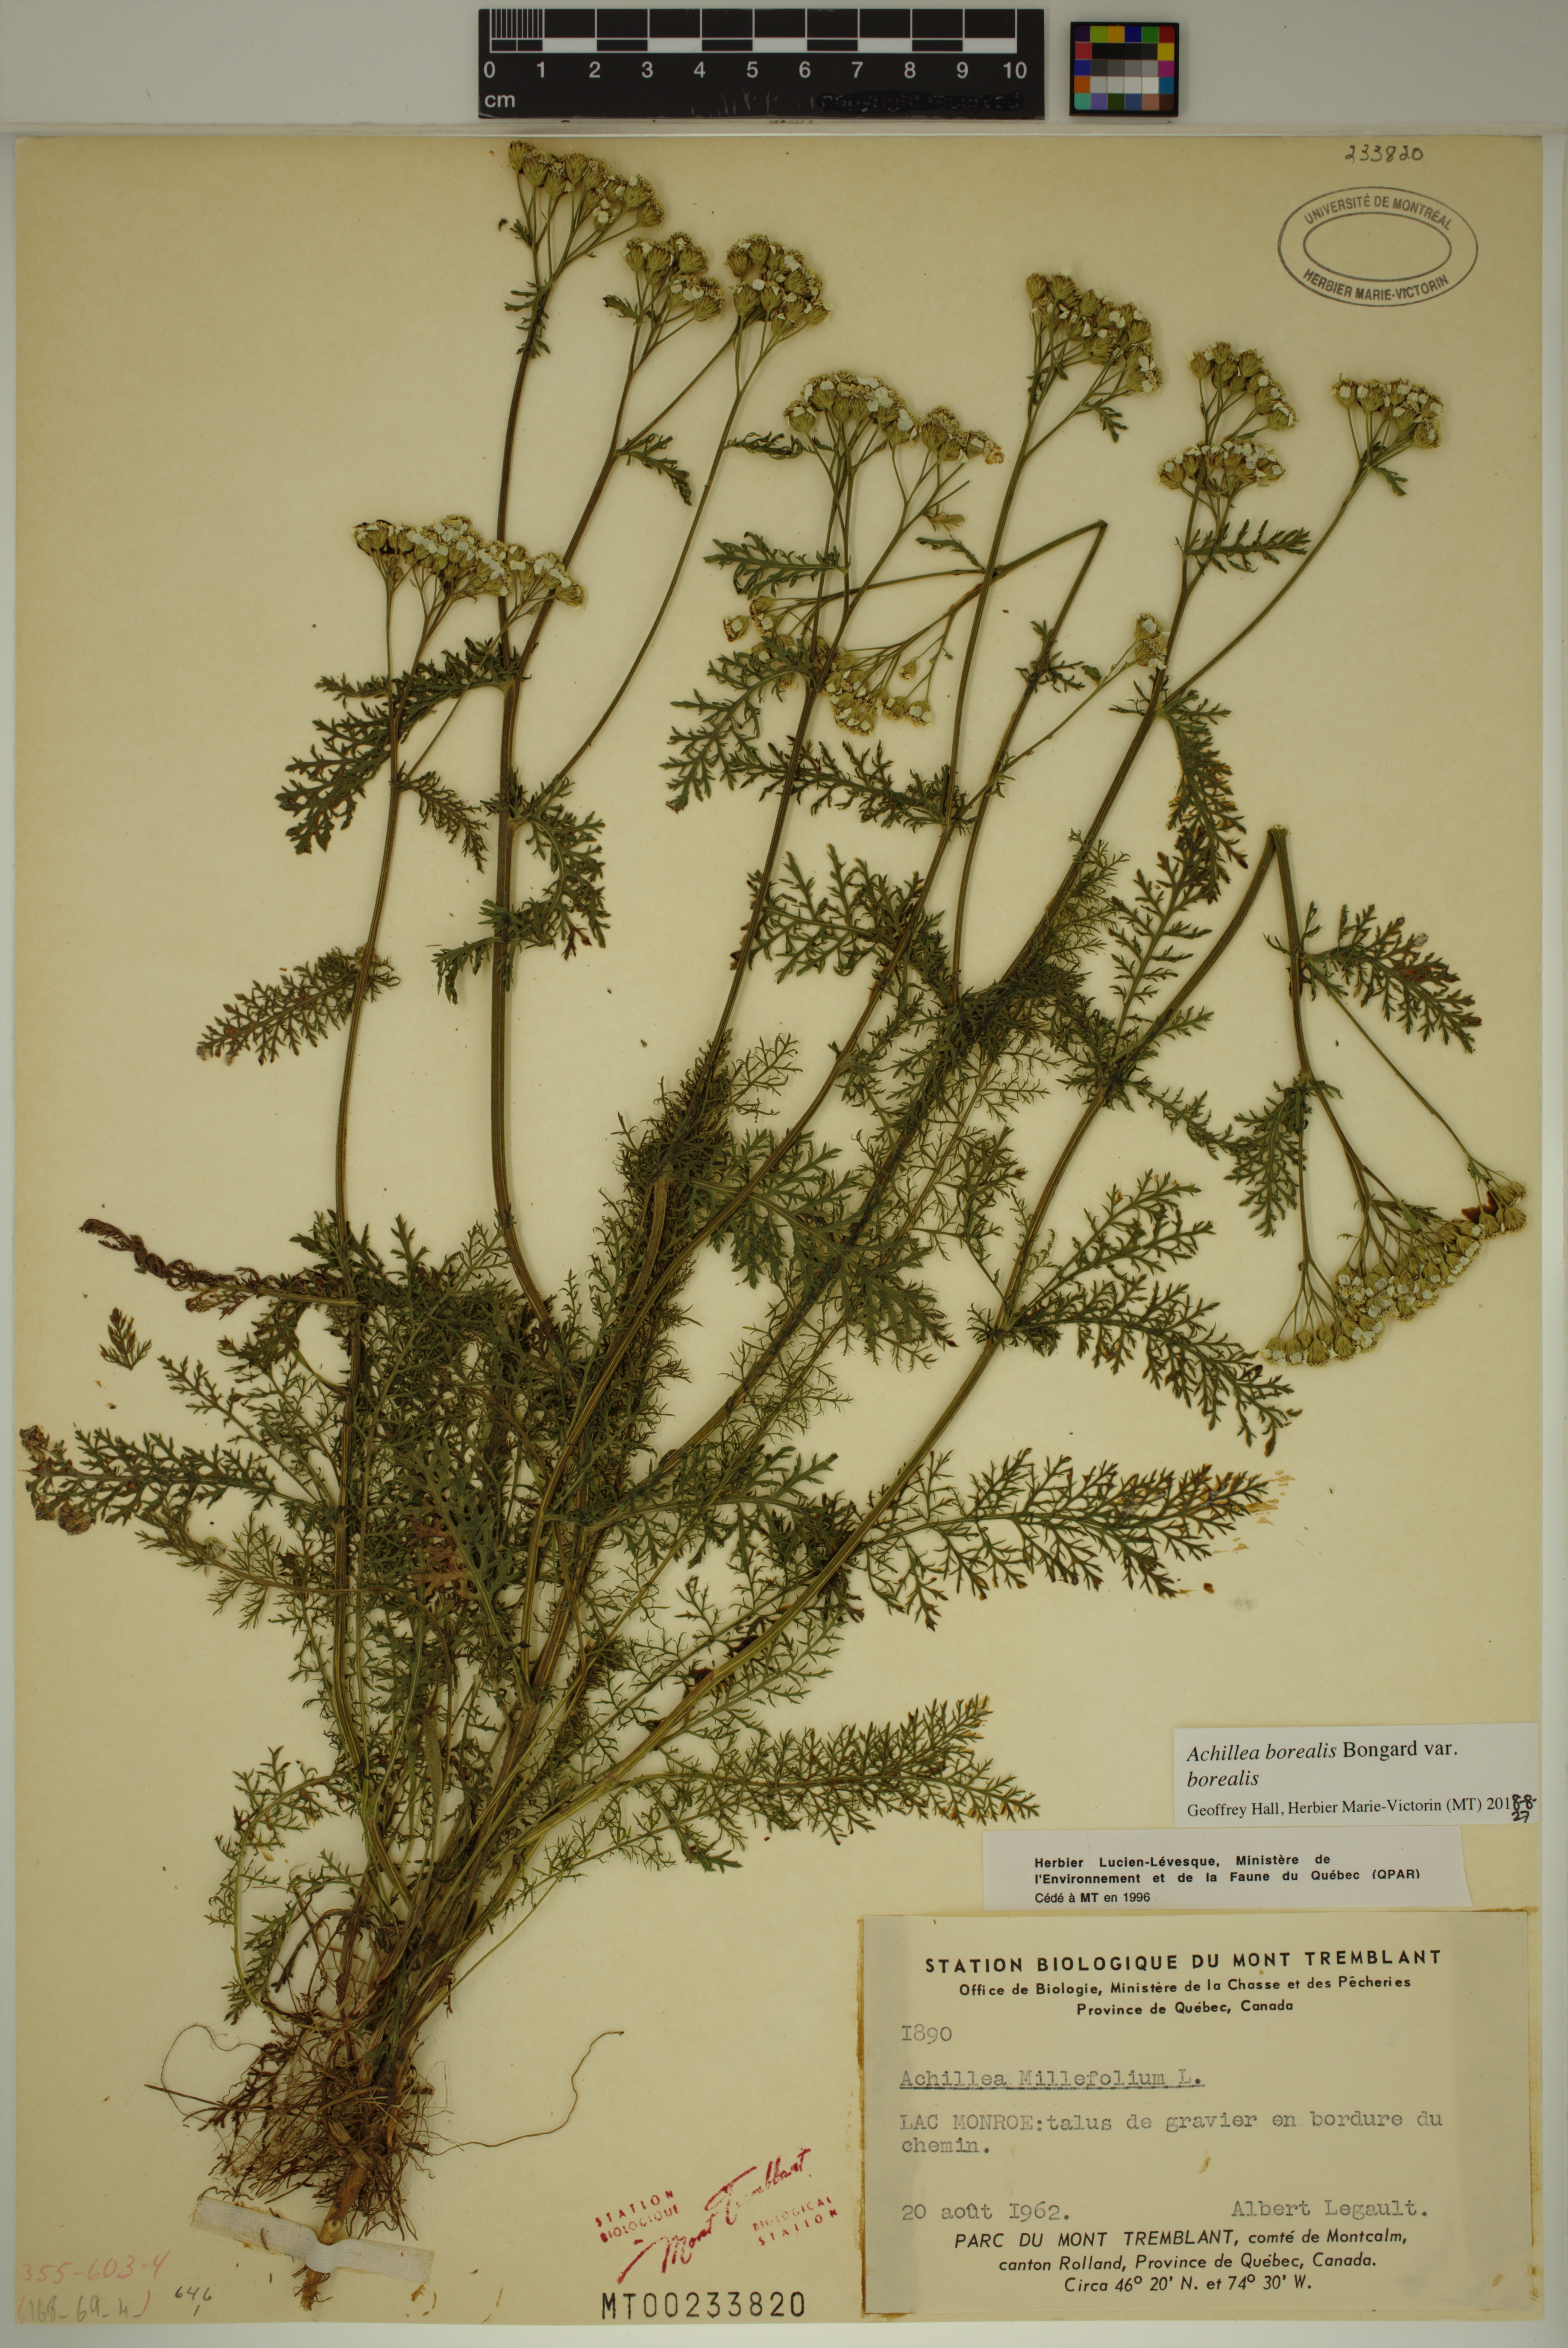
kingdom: Plantae
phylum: Tracheophyta
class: Magnoliopsida
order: Asterales
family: Asteraceae
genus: Achillea
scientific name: Achillea millefolium
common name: Yarrow
